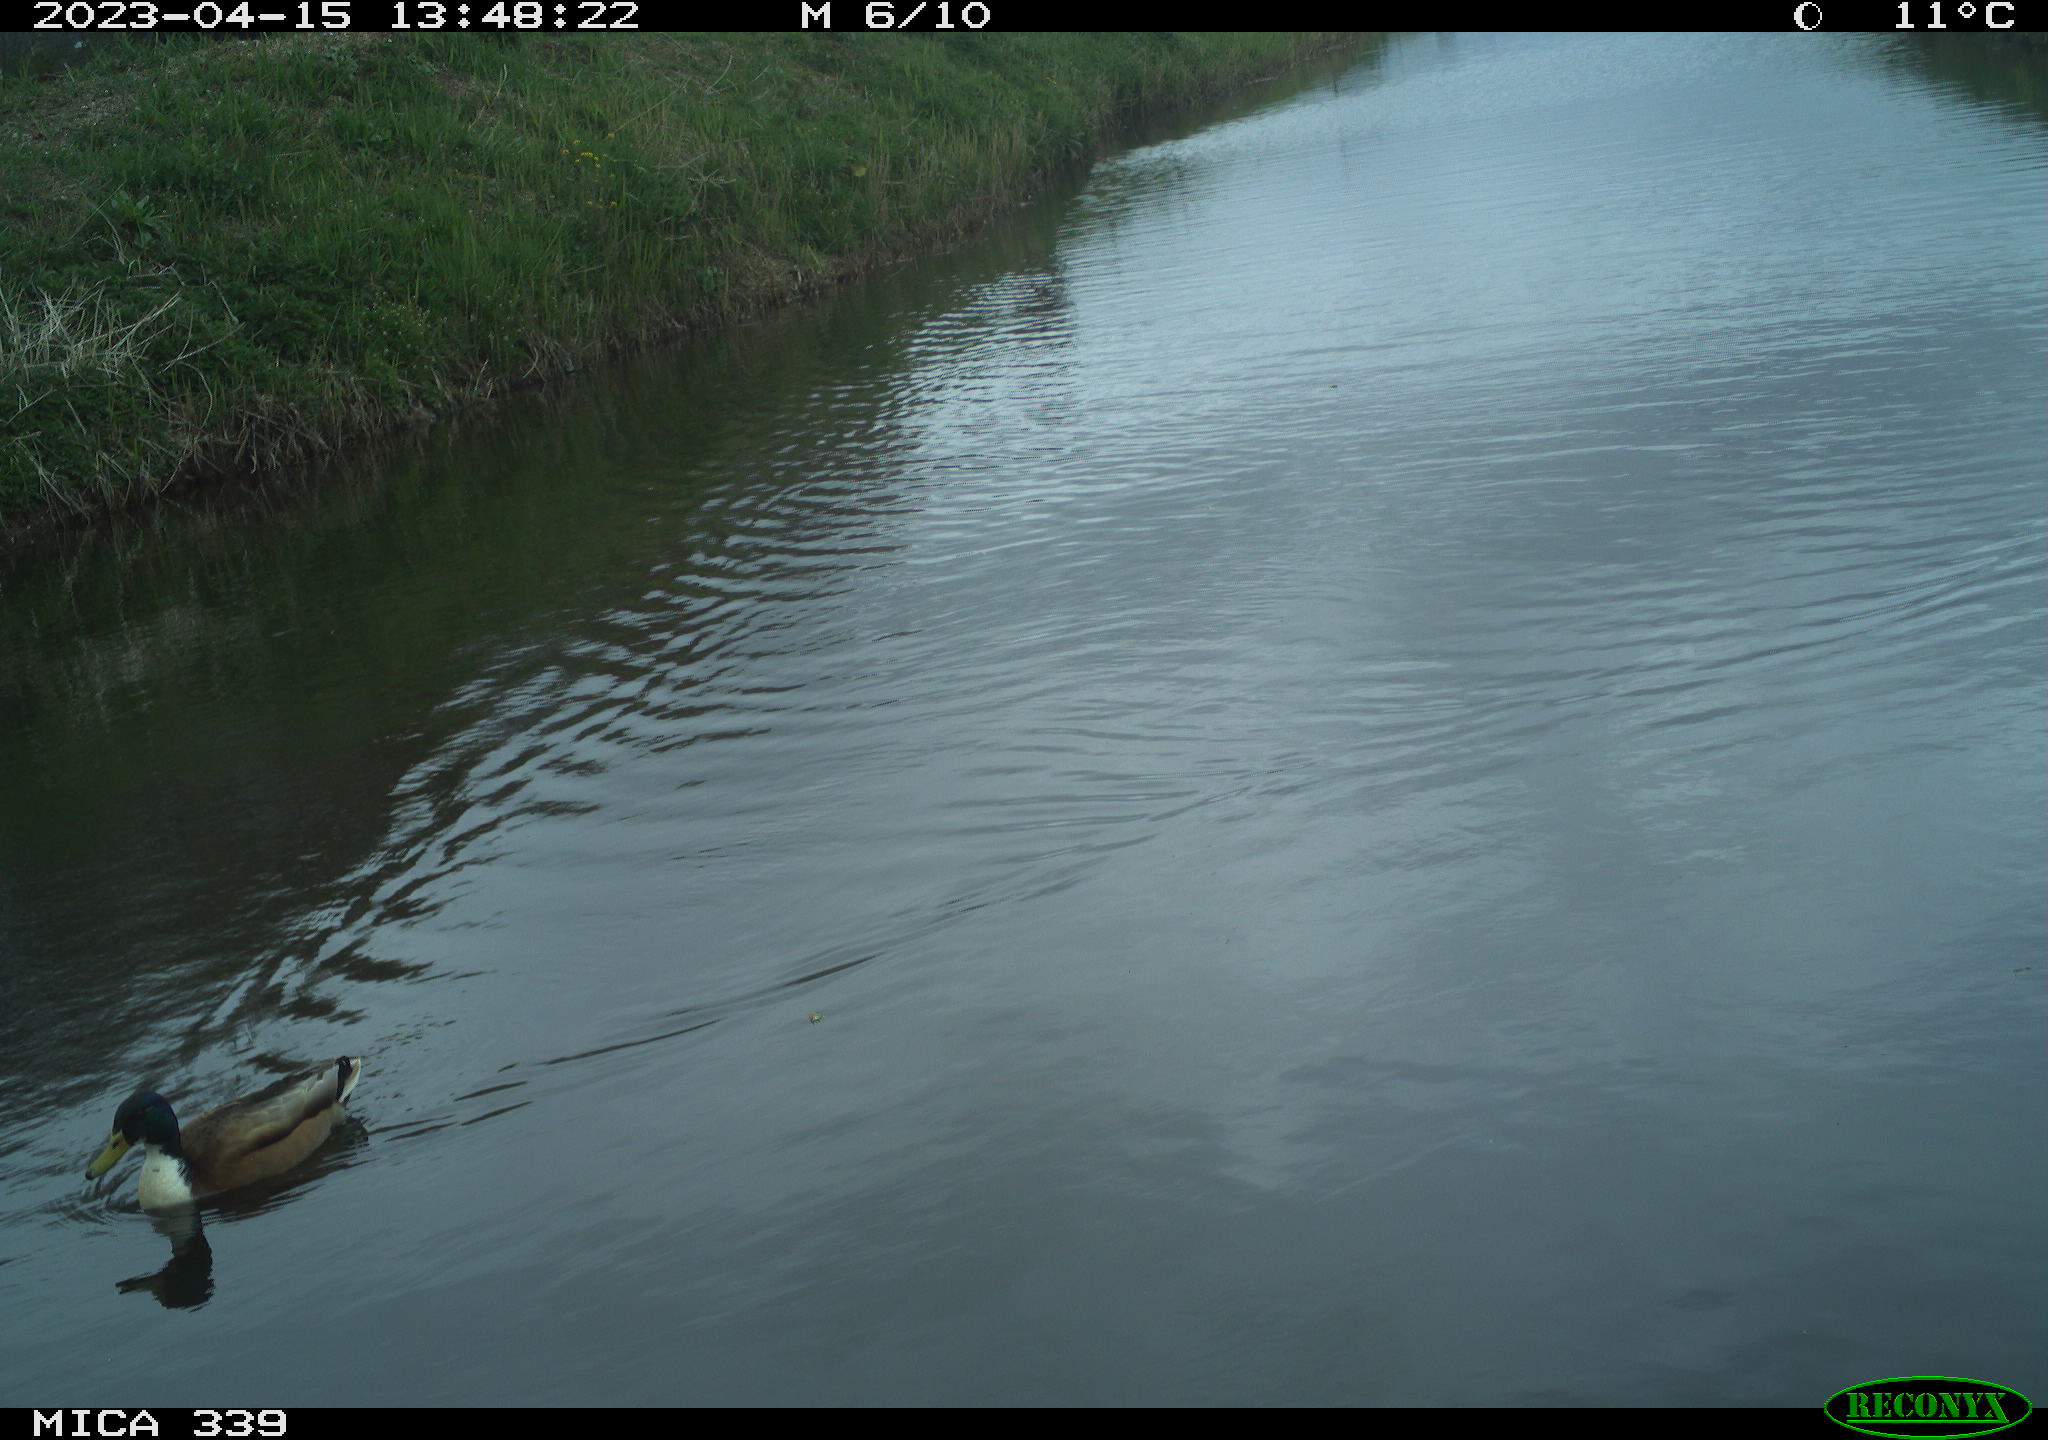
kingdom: Animalia
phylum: Chordata
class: Aves
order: Anseriformes
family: Anatidae
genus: Anas
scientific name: Anas
